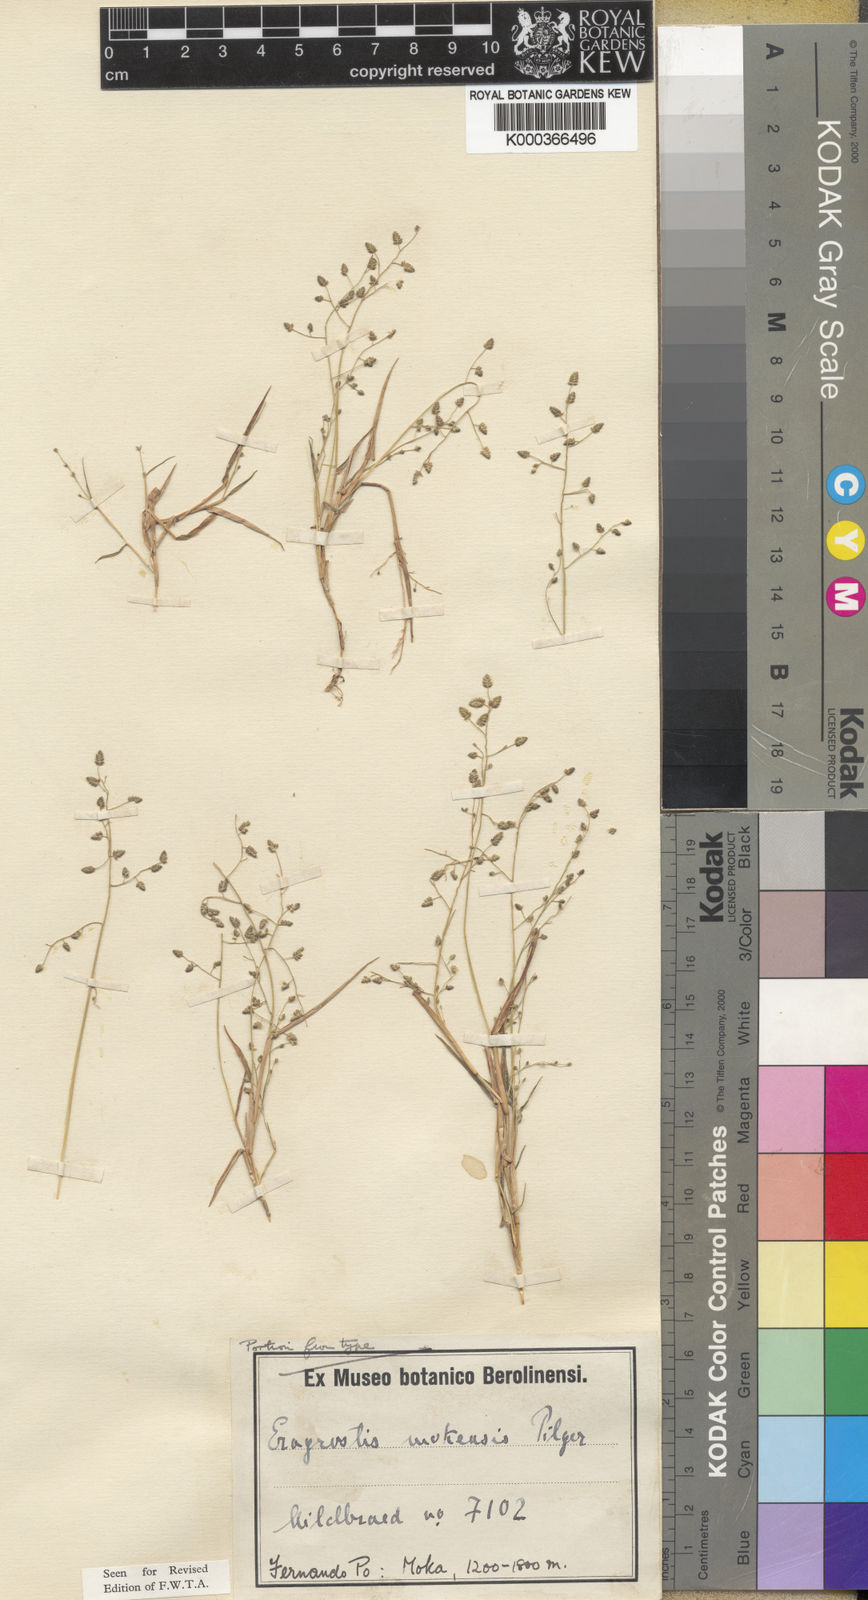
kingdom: Plantae
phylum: Tracheophyta
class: Liliopsida
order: Poales
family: Poaceae
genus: Eragrostis
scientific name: Eragrostis mokensis
